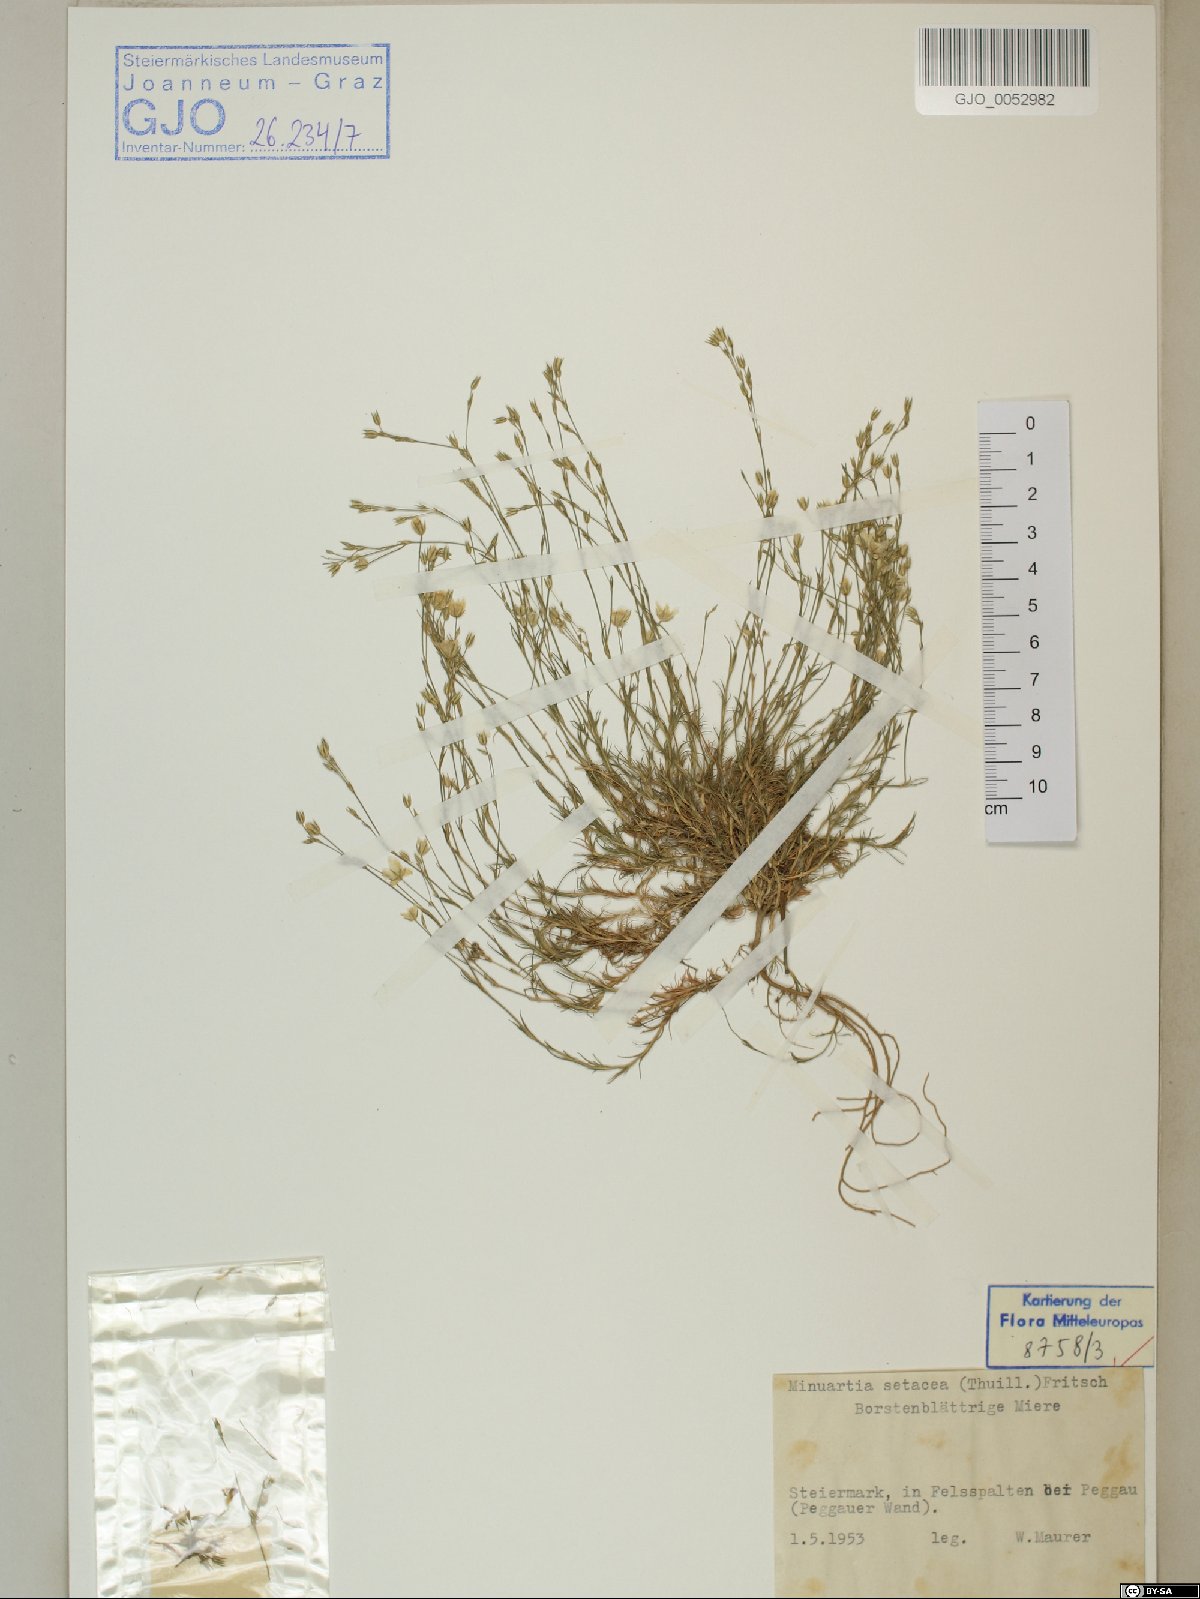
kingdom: Plantae
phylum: Tracheophyta
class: Magnoliopsida
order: Caryophyllales
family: Caryophyllaceae
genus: Minuartia
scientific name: Minuartia setacea
